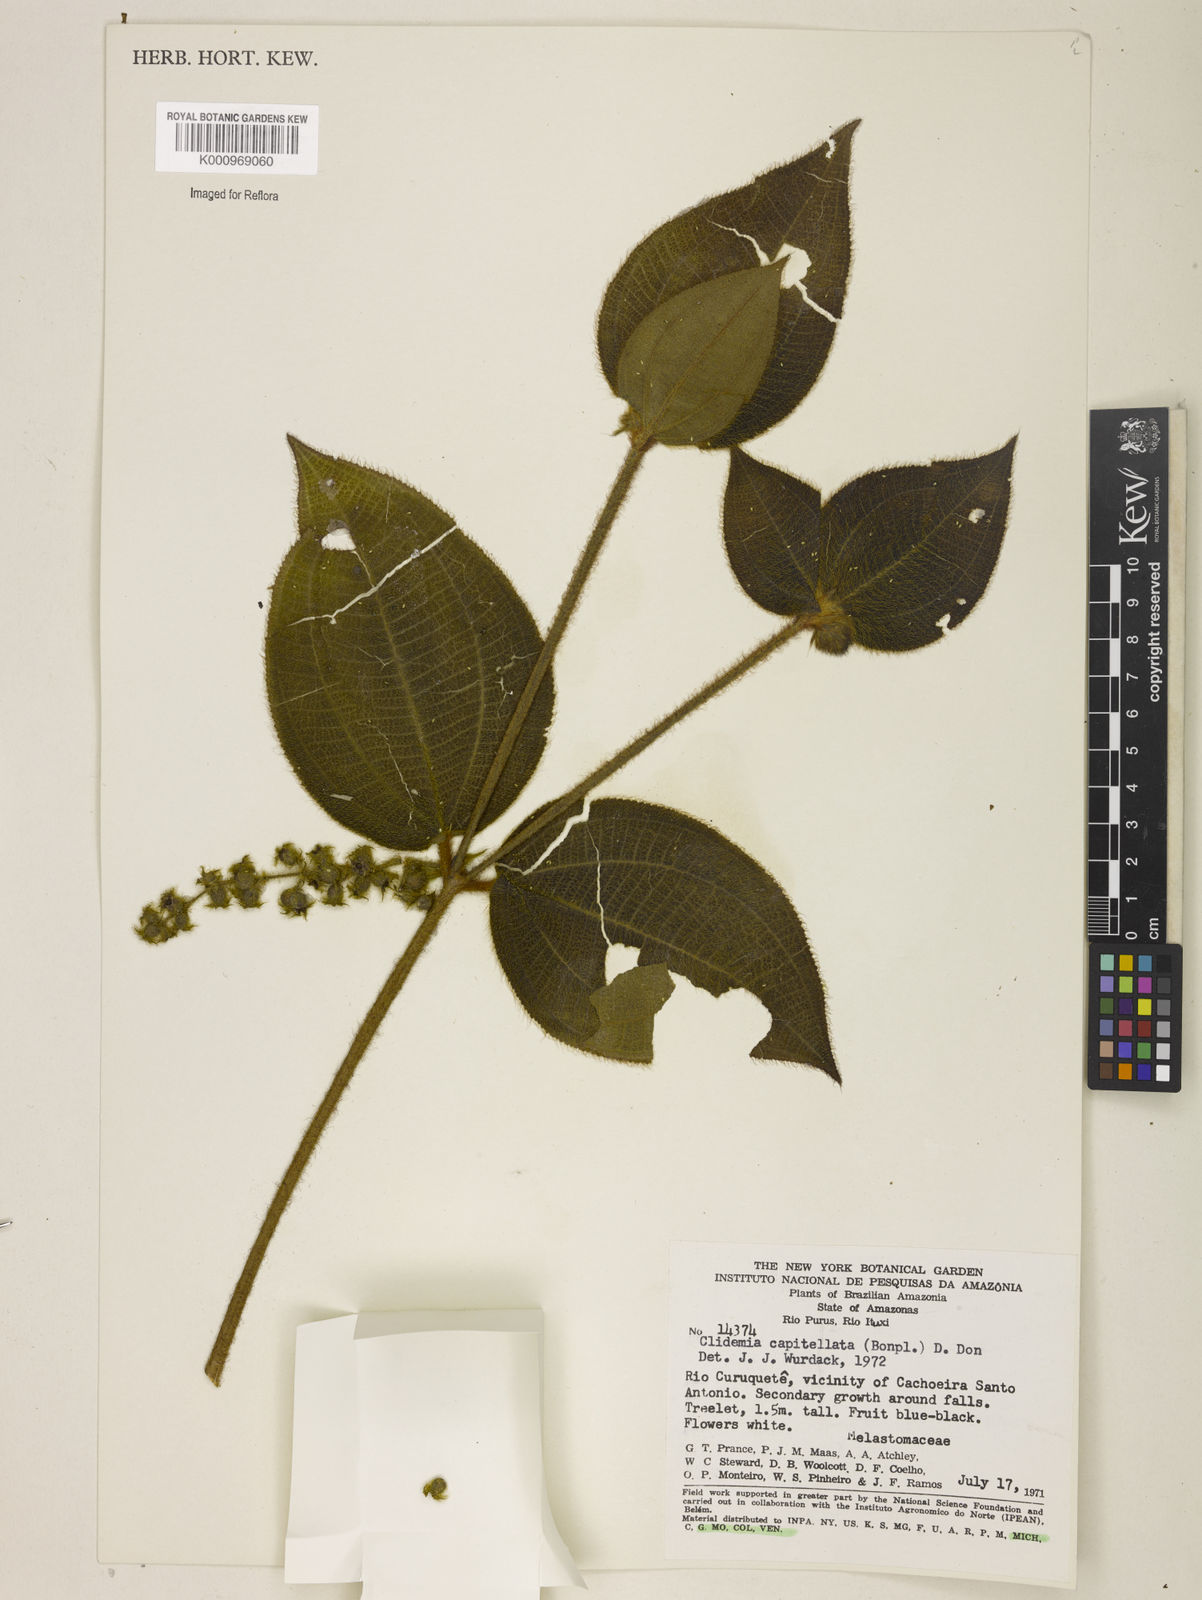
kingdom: Plantae
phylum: Tracheophyta
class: Magnoliopsida
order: Myrtales
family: Melastomataceae
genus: Miconia
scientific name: Miconia dependens
